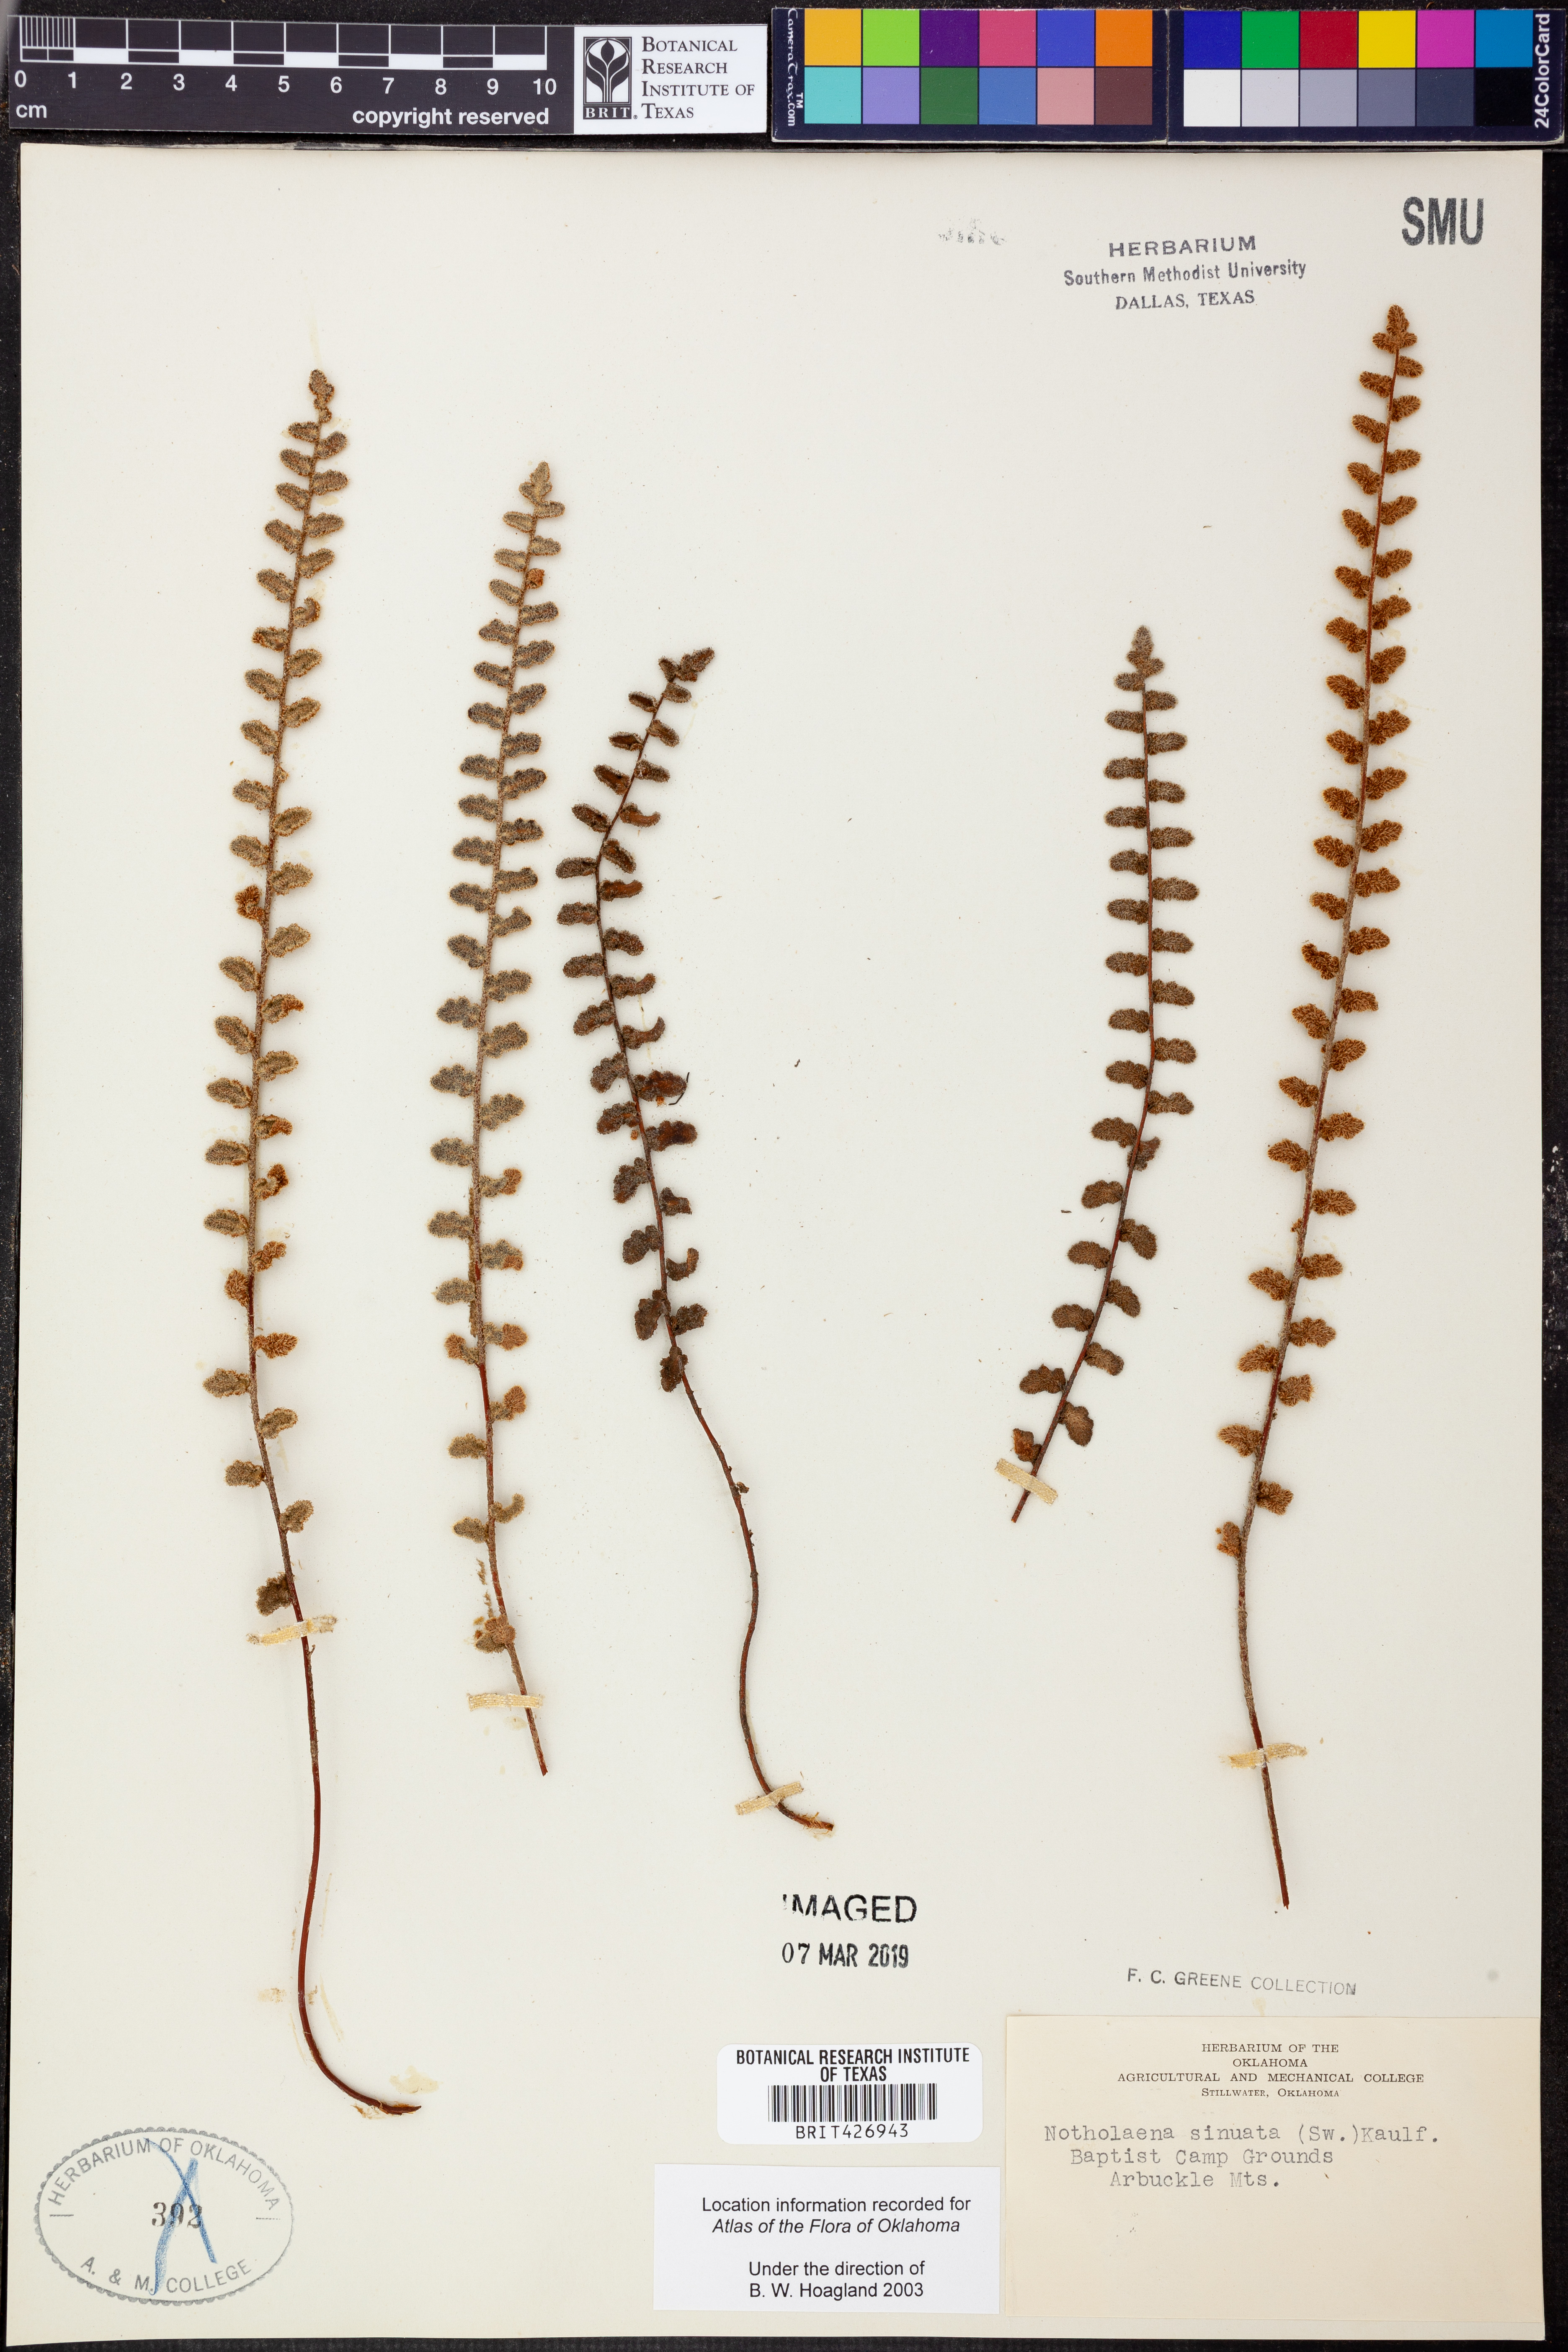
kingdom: Plantae
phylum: Tracheophyta
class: Polypodiopsida
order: Polypodiales
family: Pteridaceae
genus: Astrolepis
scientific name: Astrolepis sinuata
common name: Wavy scaly cloakfern
